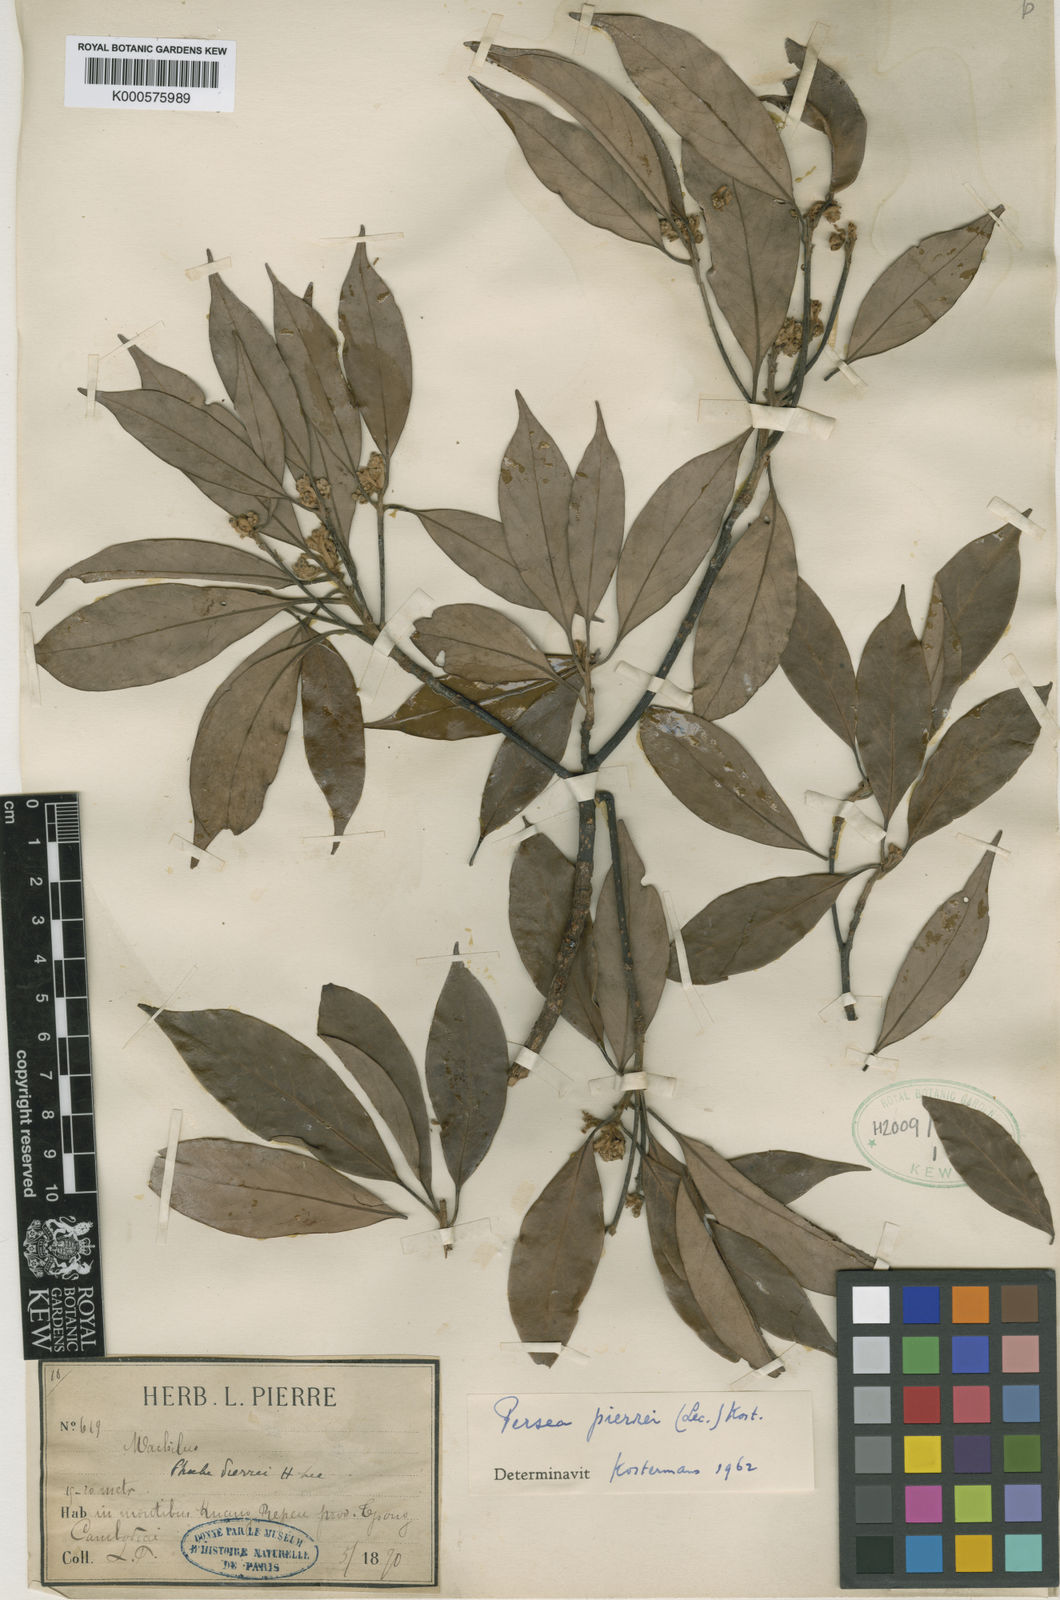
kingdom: Plantae
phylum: Tracheophyta
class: Magnoliopsida
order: Laurales
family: Lauraceae
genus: Machilus
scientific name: Machilus
